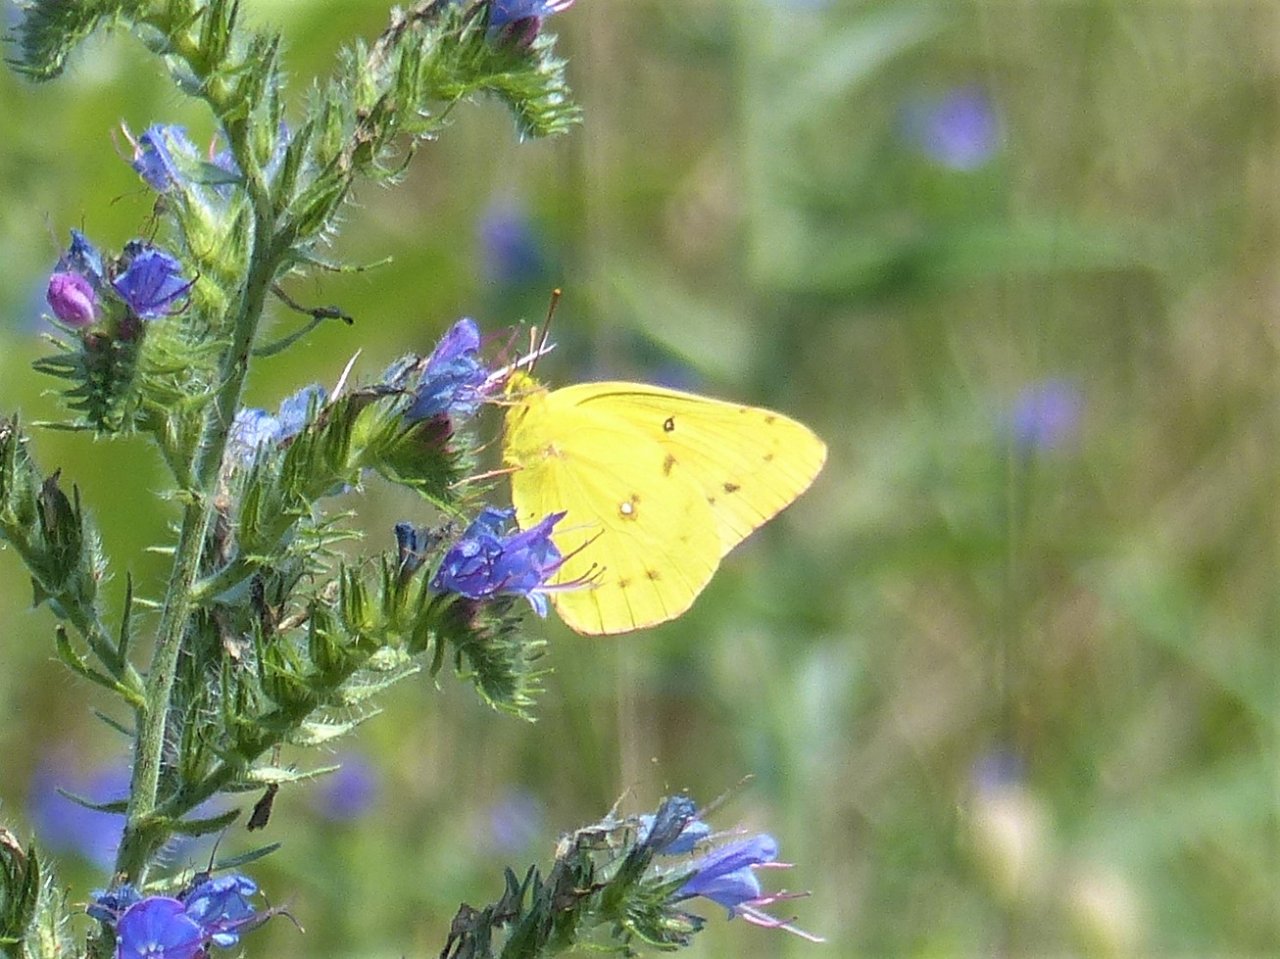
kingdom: Animalia
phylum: Arthropoda
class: Insecta
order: Lepidoptera
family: Pieridae
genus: Colias
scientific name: Colias eurytheme
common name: Orange Sulphur
